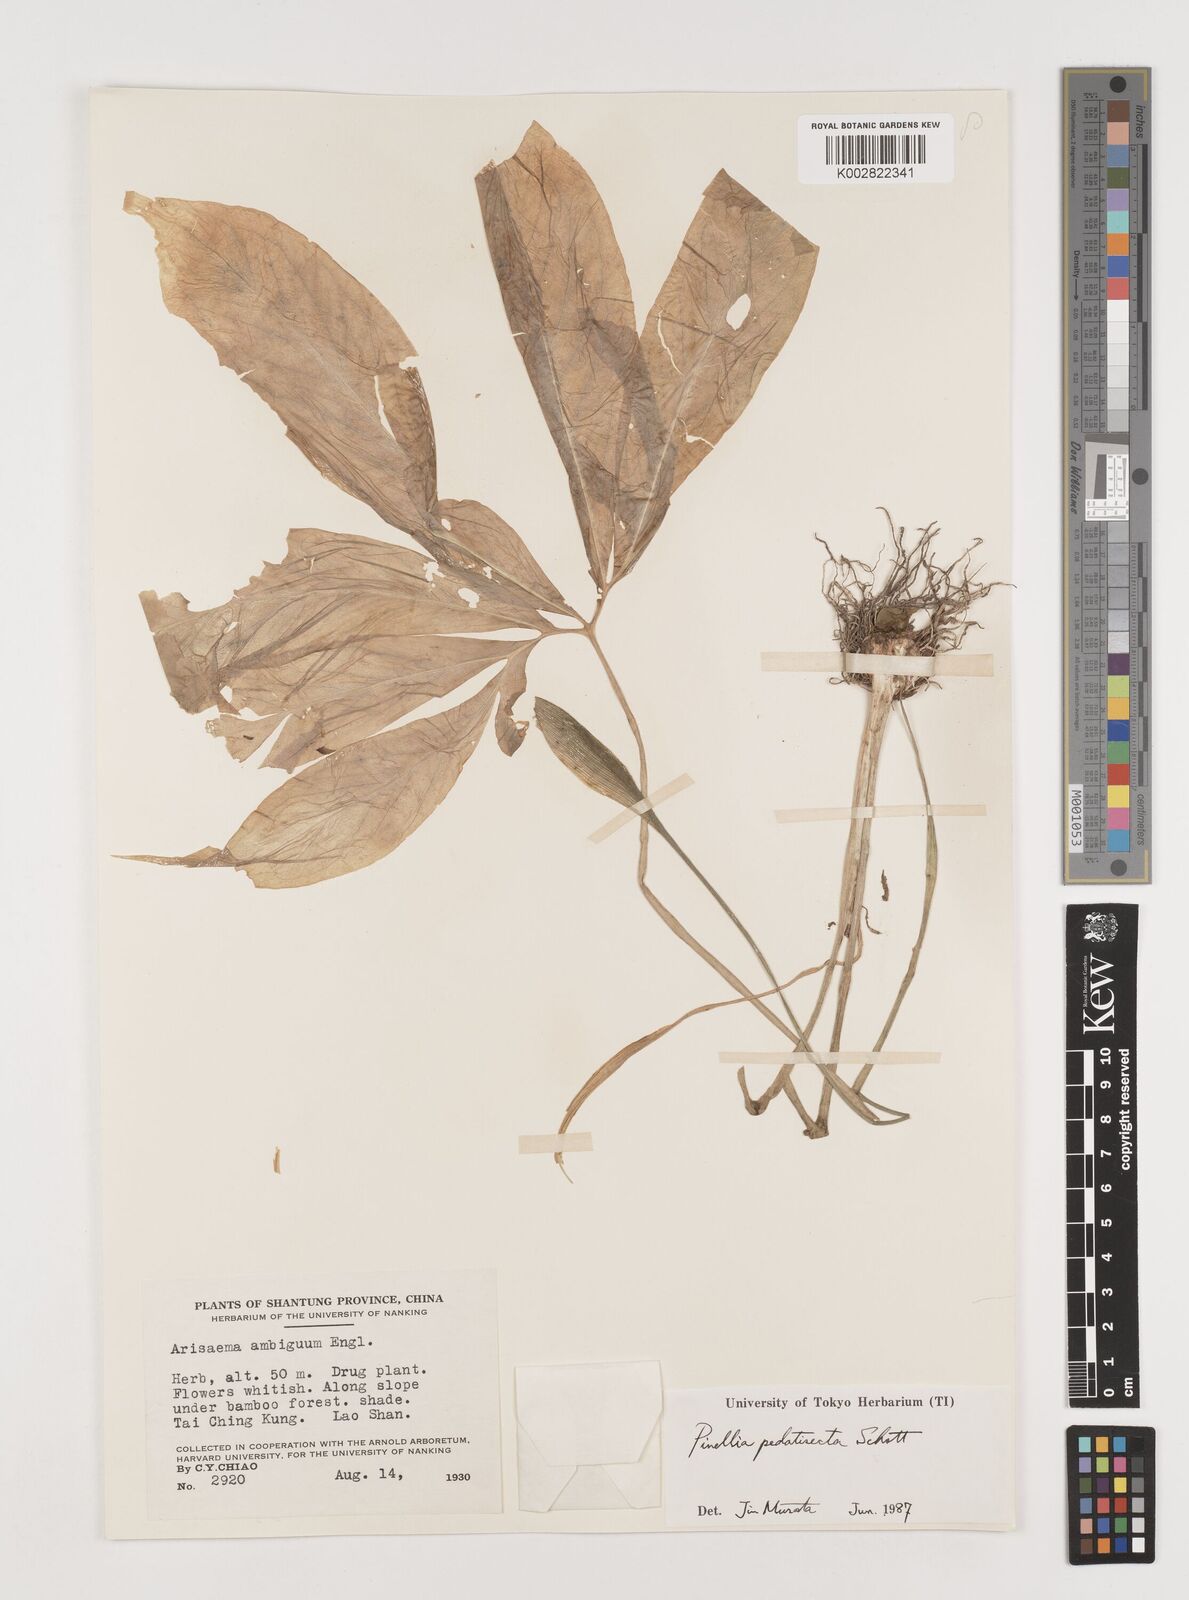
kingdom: Plantae
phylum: Tracheophyta
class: Liliopsida
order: Alismatales
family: Araceae
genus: Pinellia
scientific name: Pinellia pedatisecta
